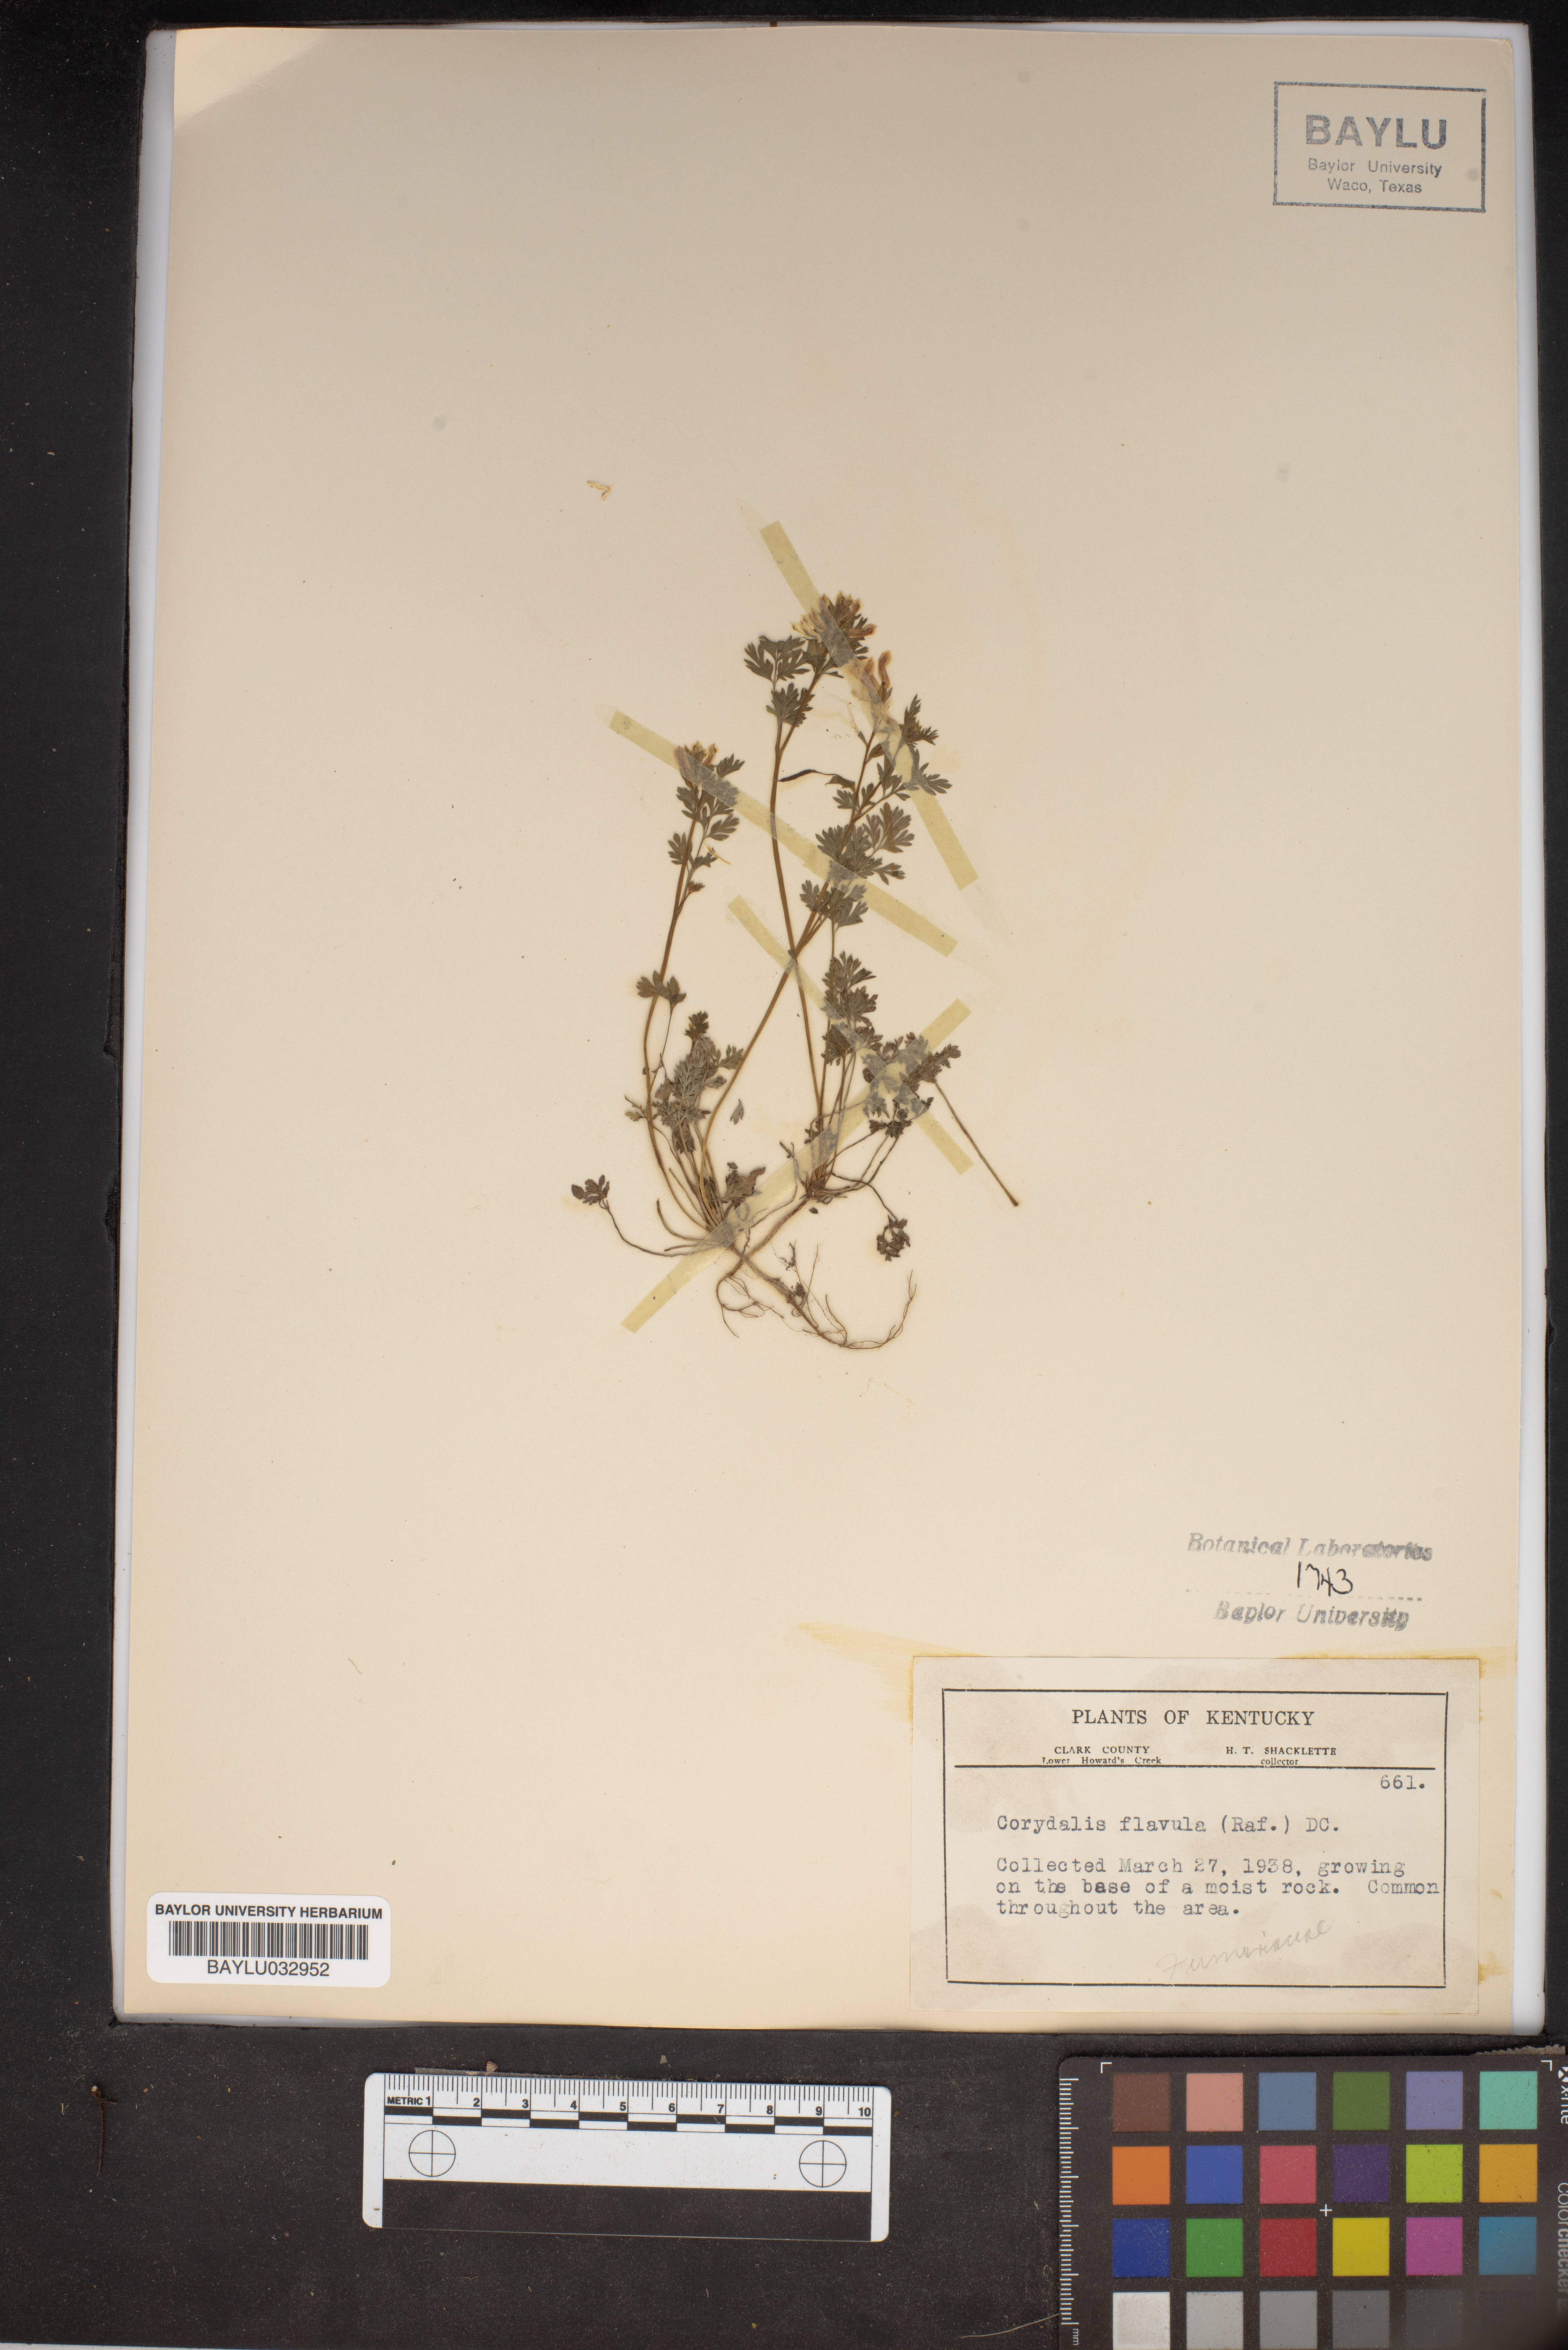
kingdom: Plantae
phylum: Tracheophyta
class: Magnoliopsida
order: Ranunculales
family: Papaveraceae
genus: Corydalis
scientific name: Corydalis flavula
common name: Yellow corydalis
